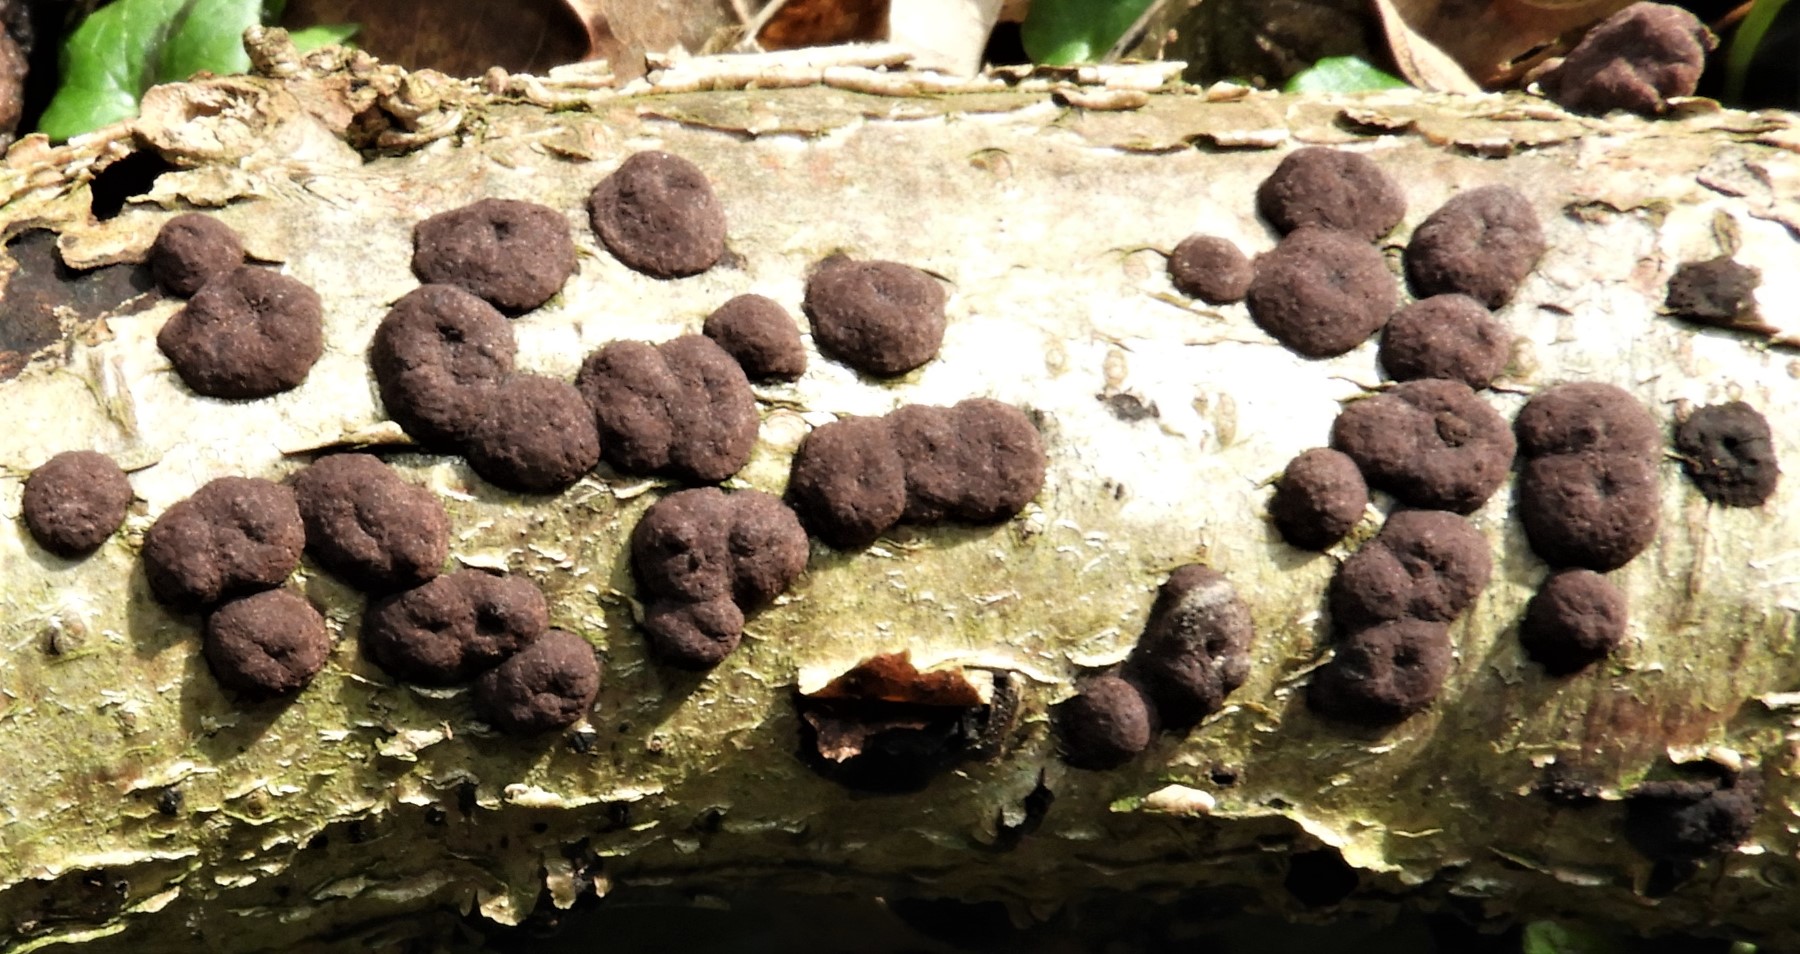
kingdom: Fungi
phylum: Ascomycota
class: Sordariomycetes
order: Xylariales
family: Hypoxylaceae
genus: Hypoxylon
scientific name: Hypoxylon fuscum
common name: kegleformet kulbær
